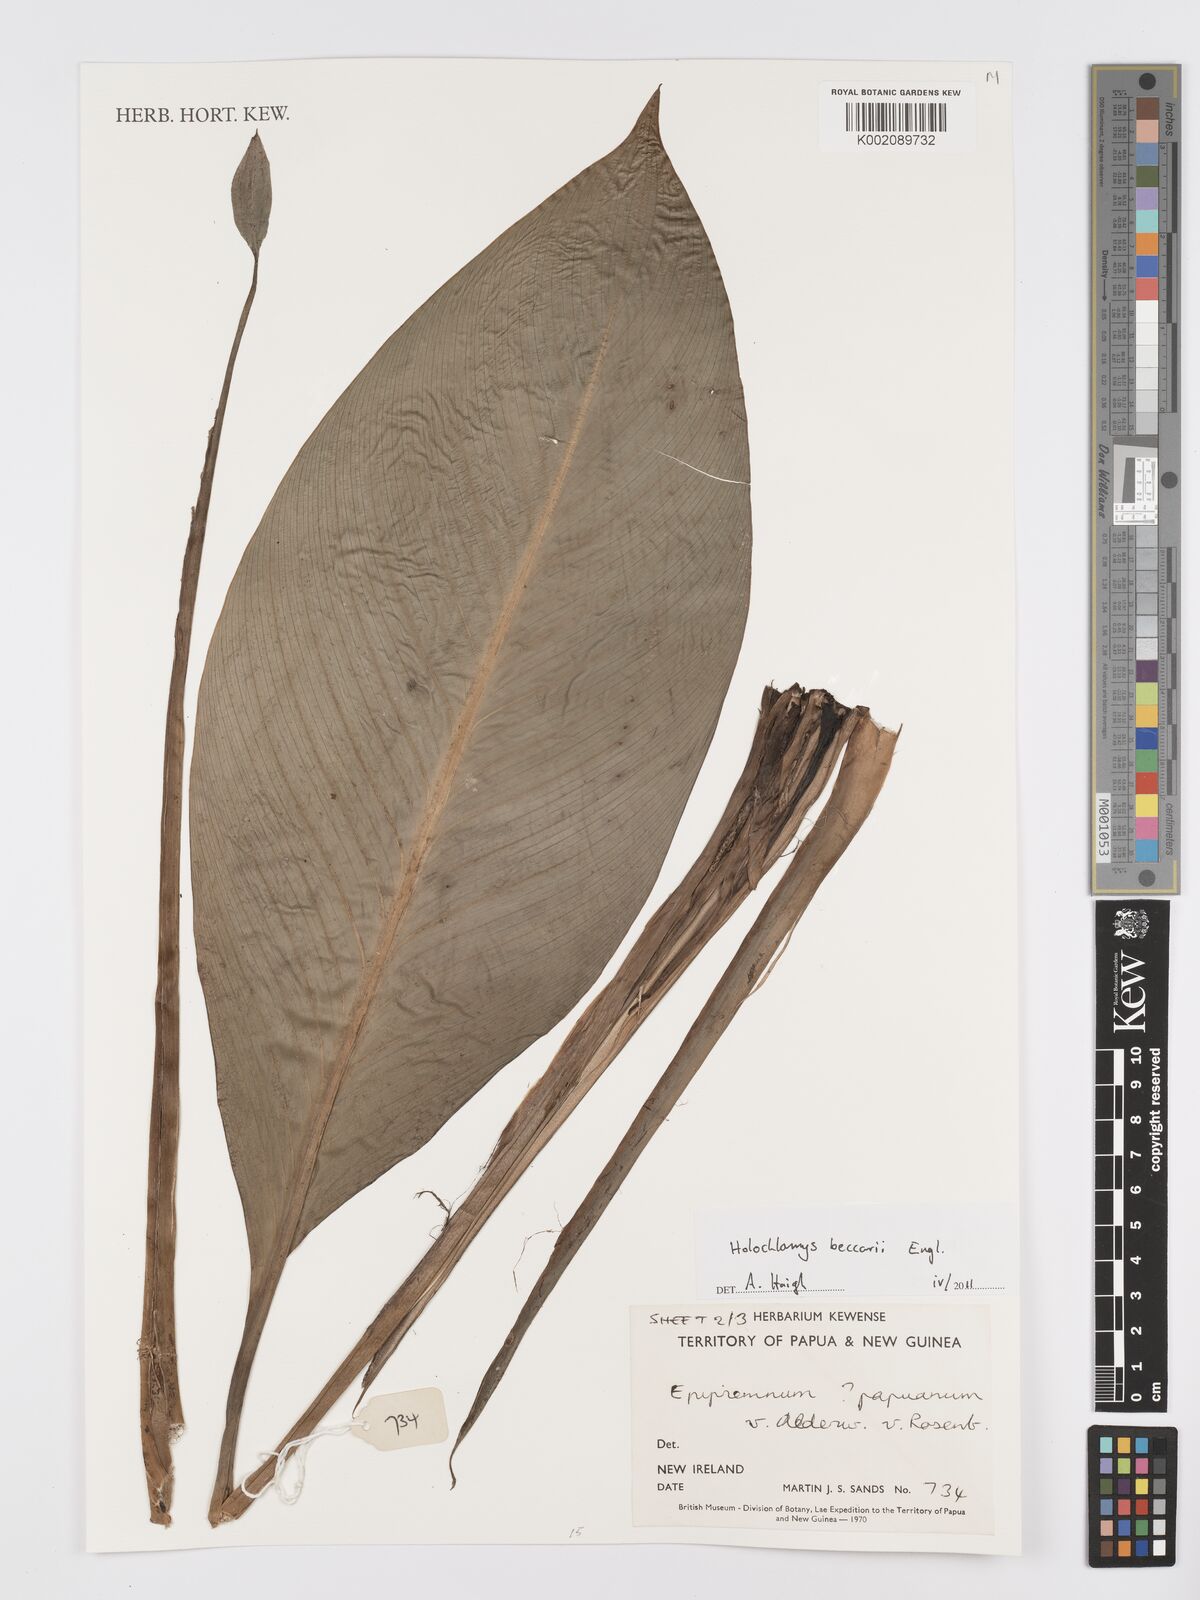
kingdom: Plantae
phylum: Tracheophyta
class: Liliopsida
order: Alismatales
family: Araceae
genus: Holochlamys
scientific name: Holochlamys beccarii
